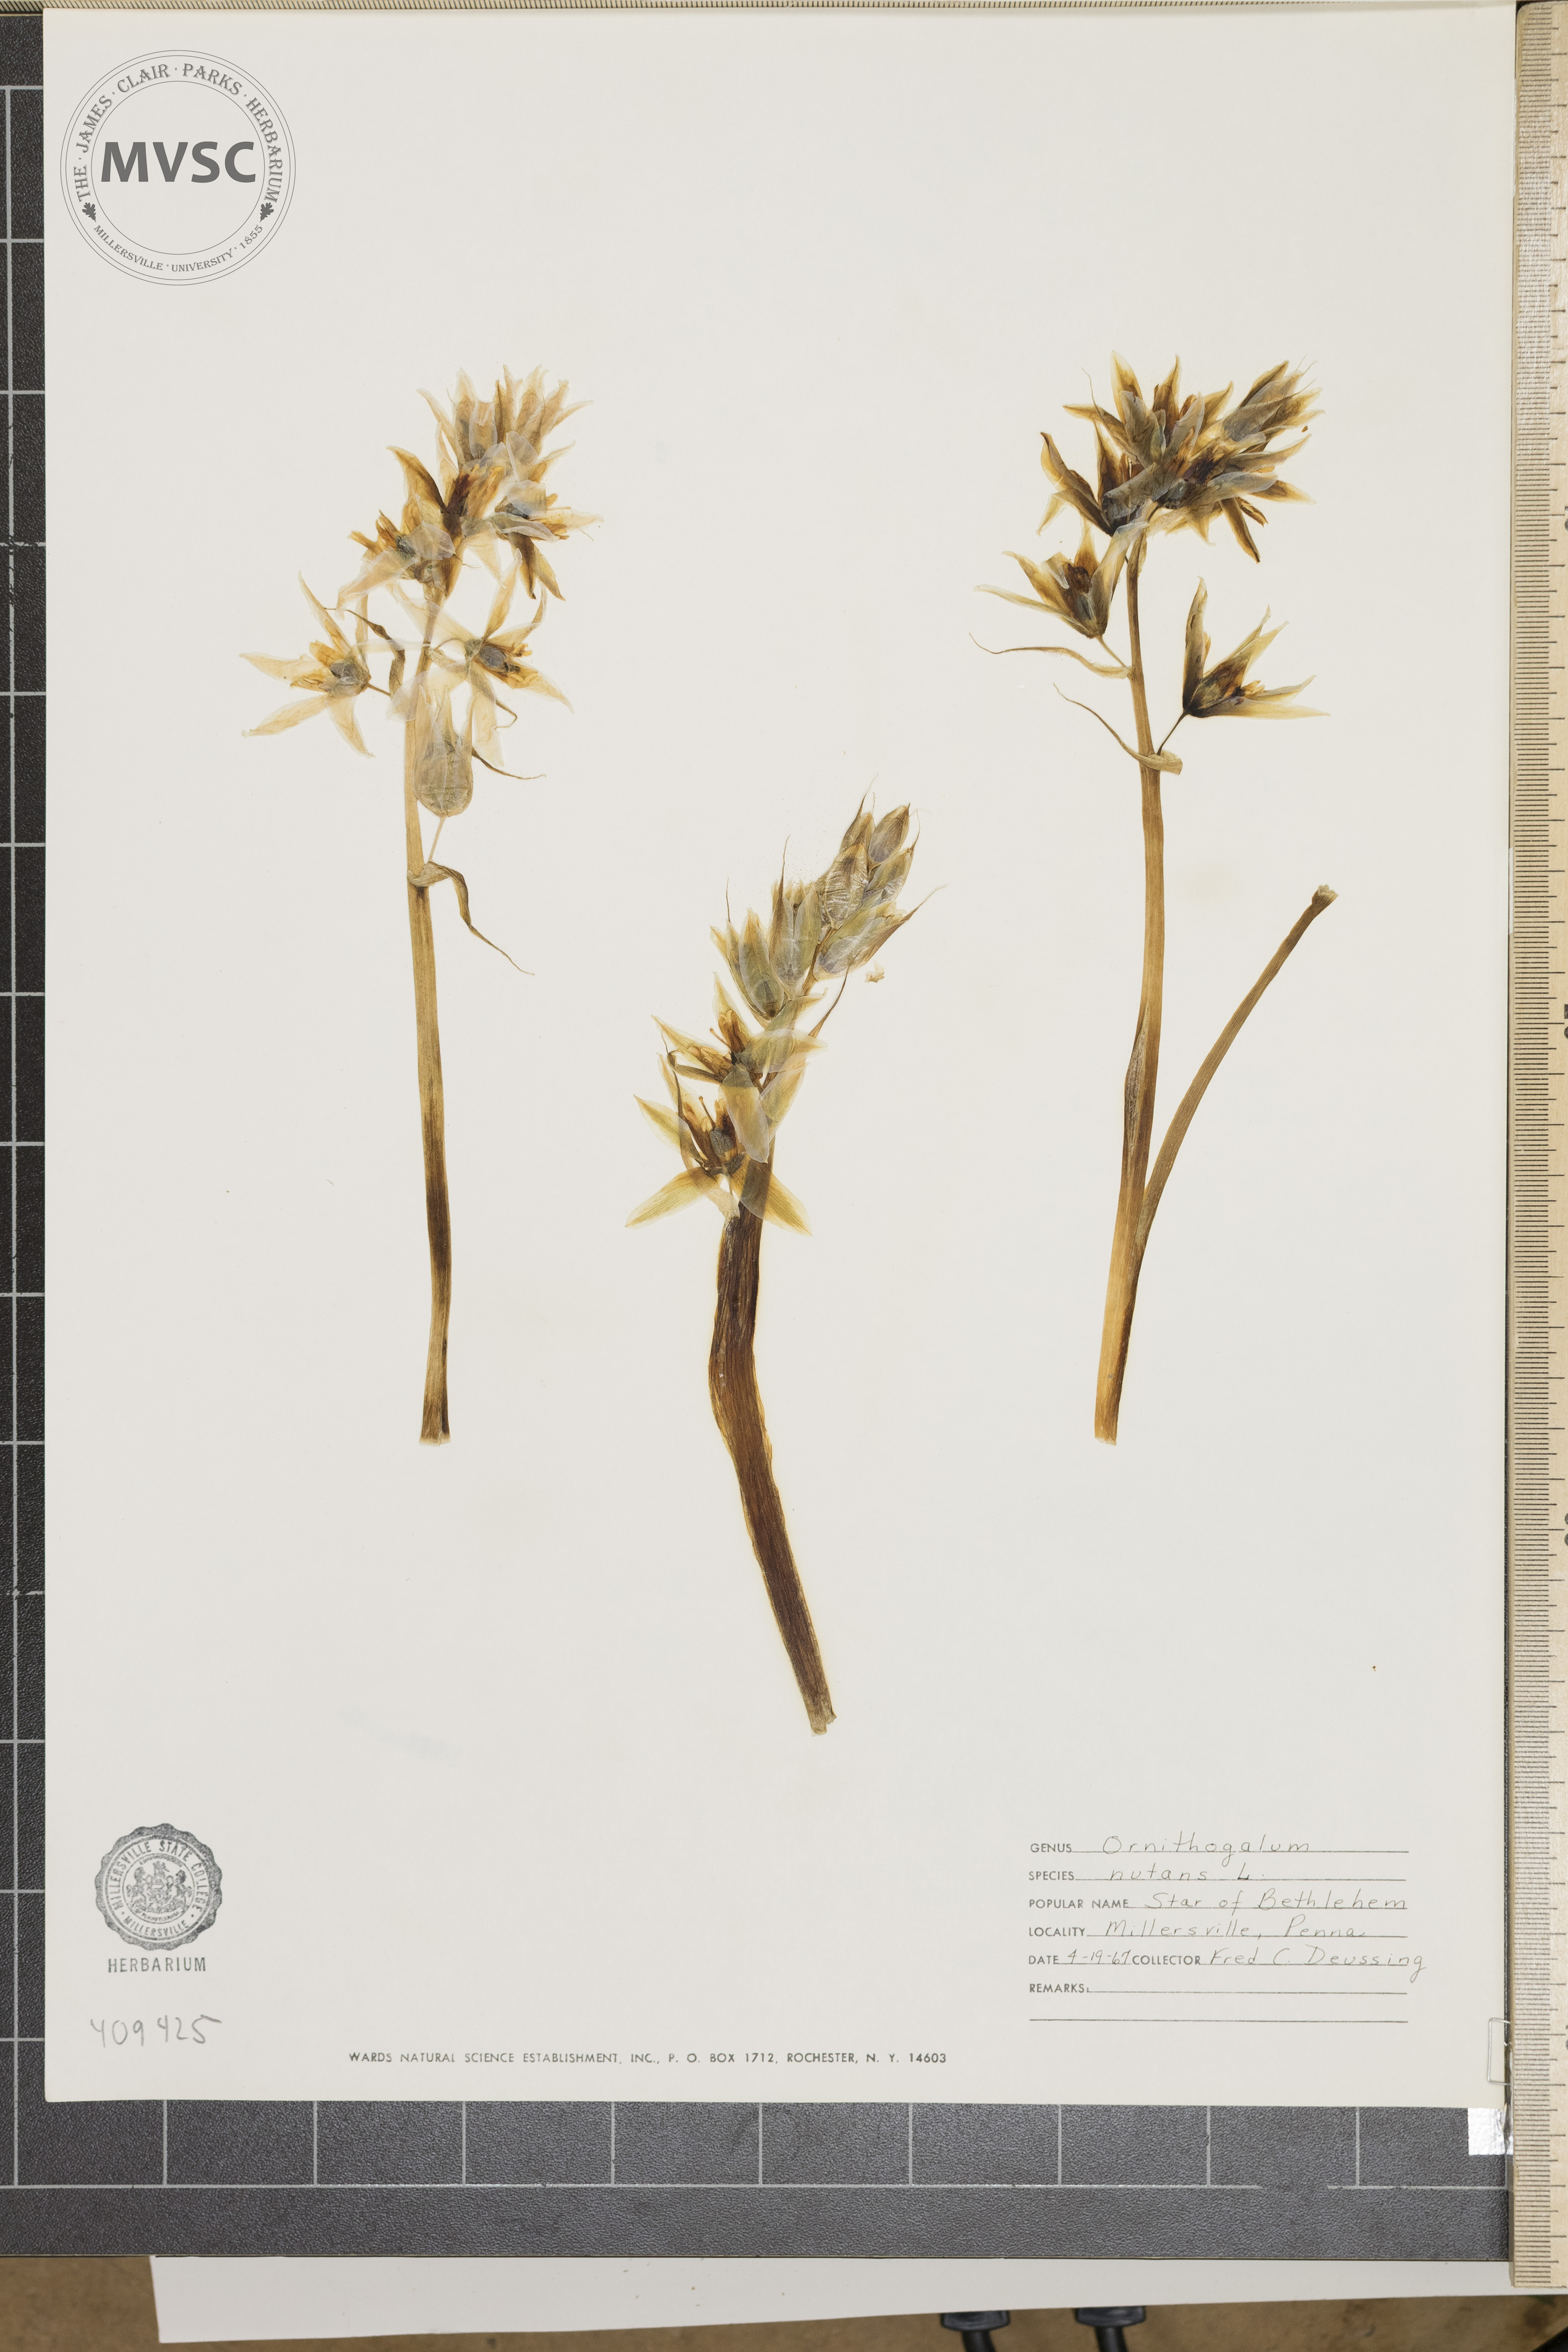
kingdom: Plantae
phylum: Tracheophyta
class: Liliopsida
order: Asparagales
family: Asparagaceae
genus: Ornithogalum
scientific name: Ornithogalum nutans
